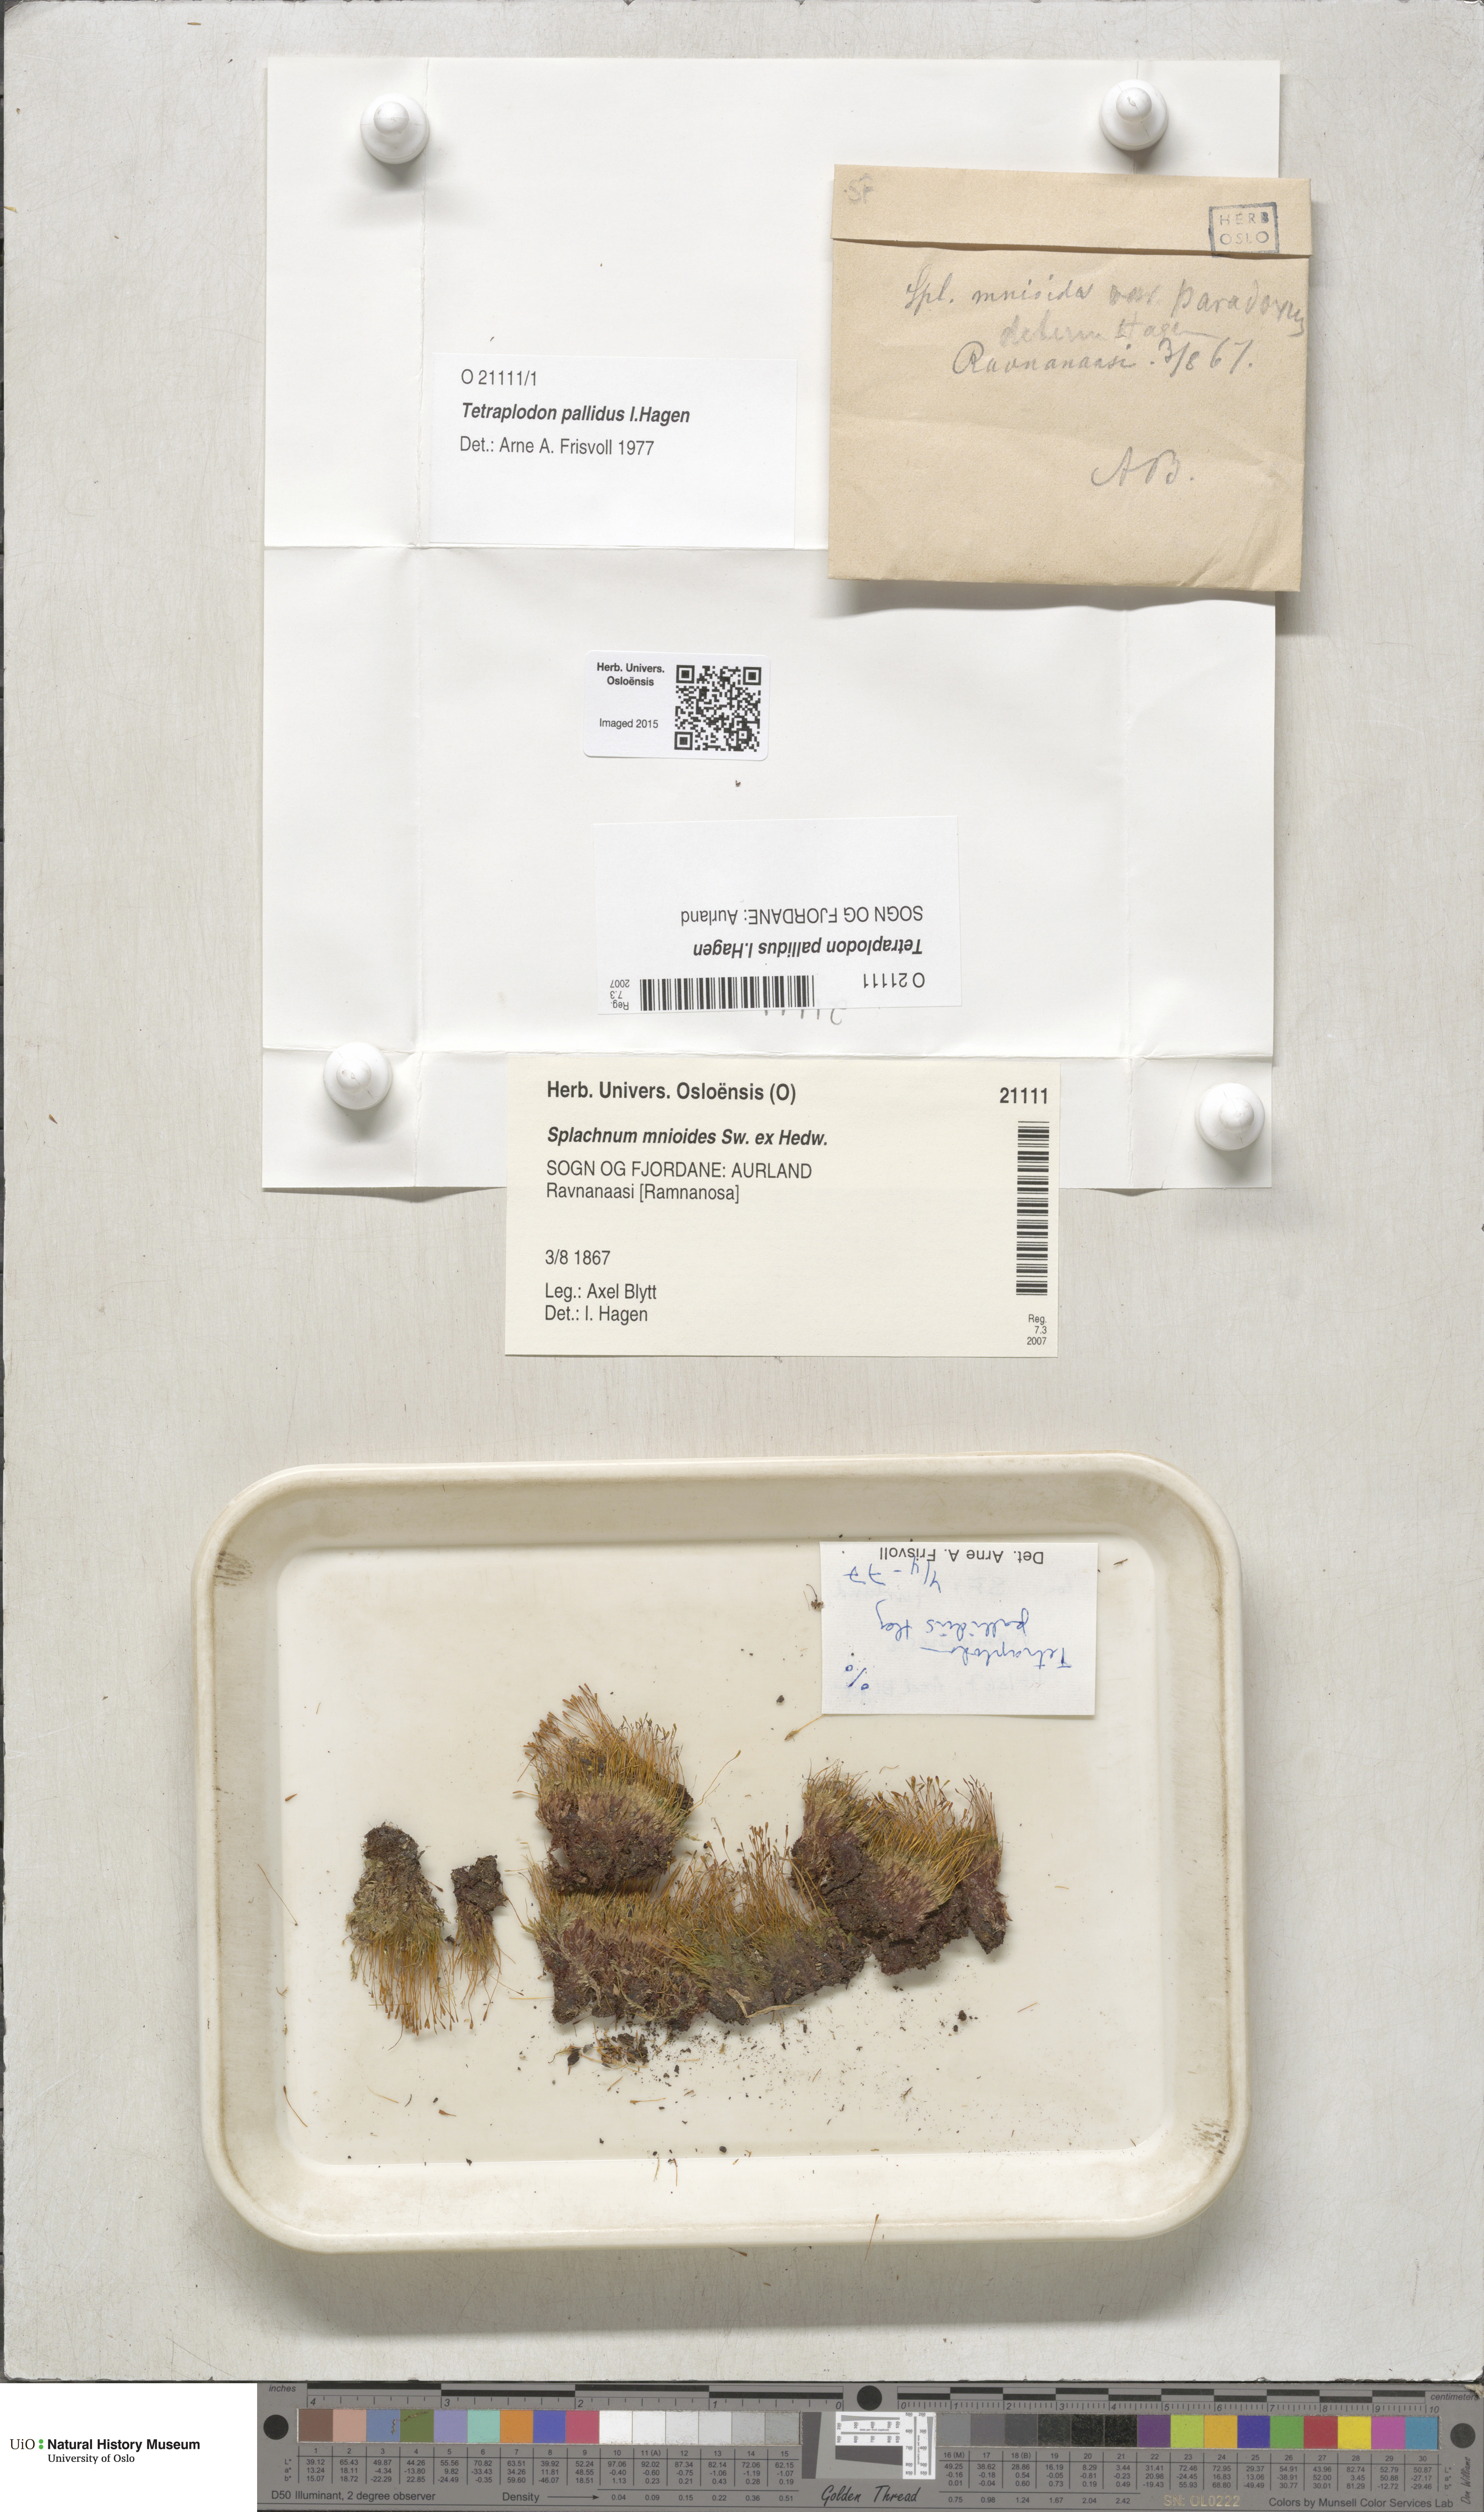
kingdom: Plantae
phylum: Bryophyta
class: Bryopsida
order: Splachnales
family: Splachnaceae
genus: Tetraplodon
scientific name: Tetraplodon pallidus
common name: Pale nitrogen moss
